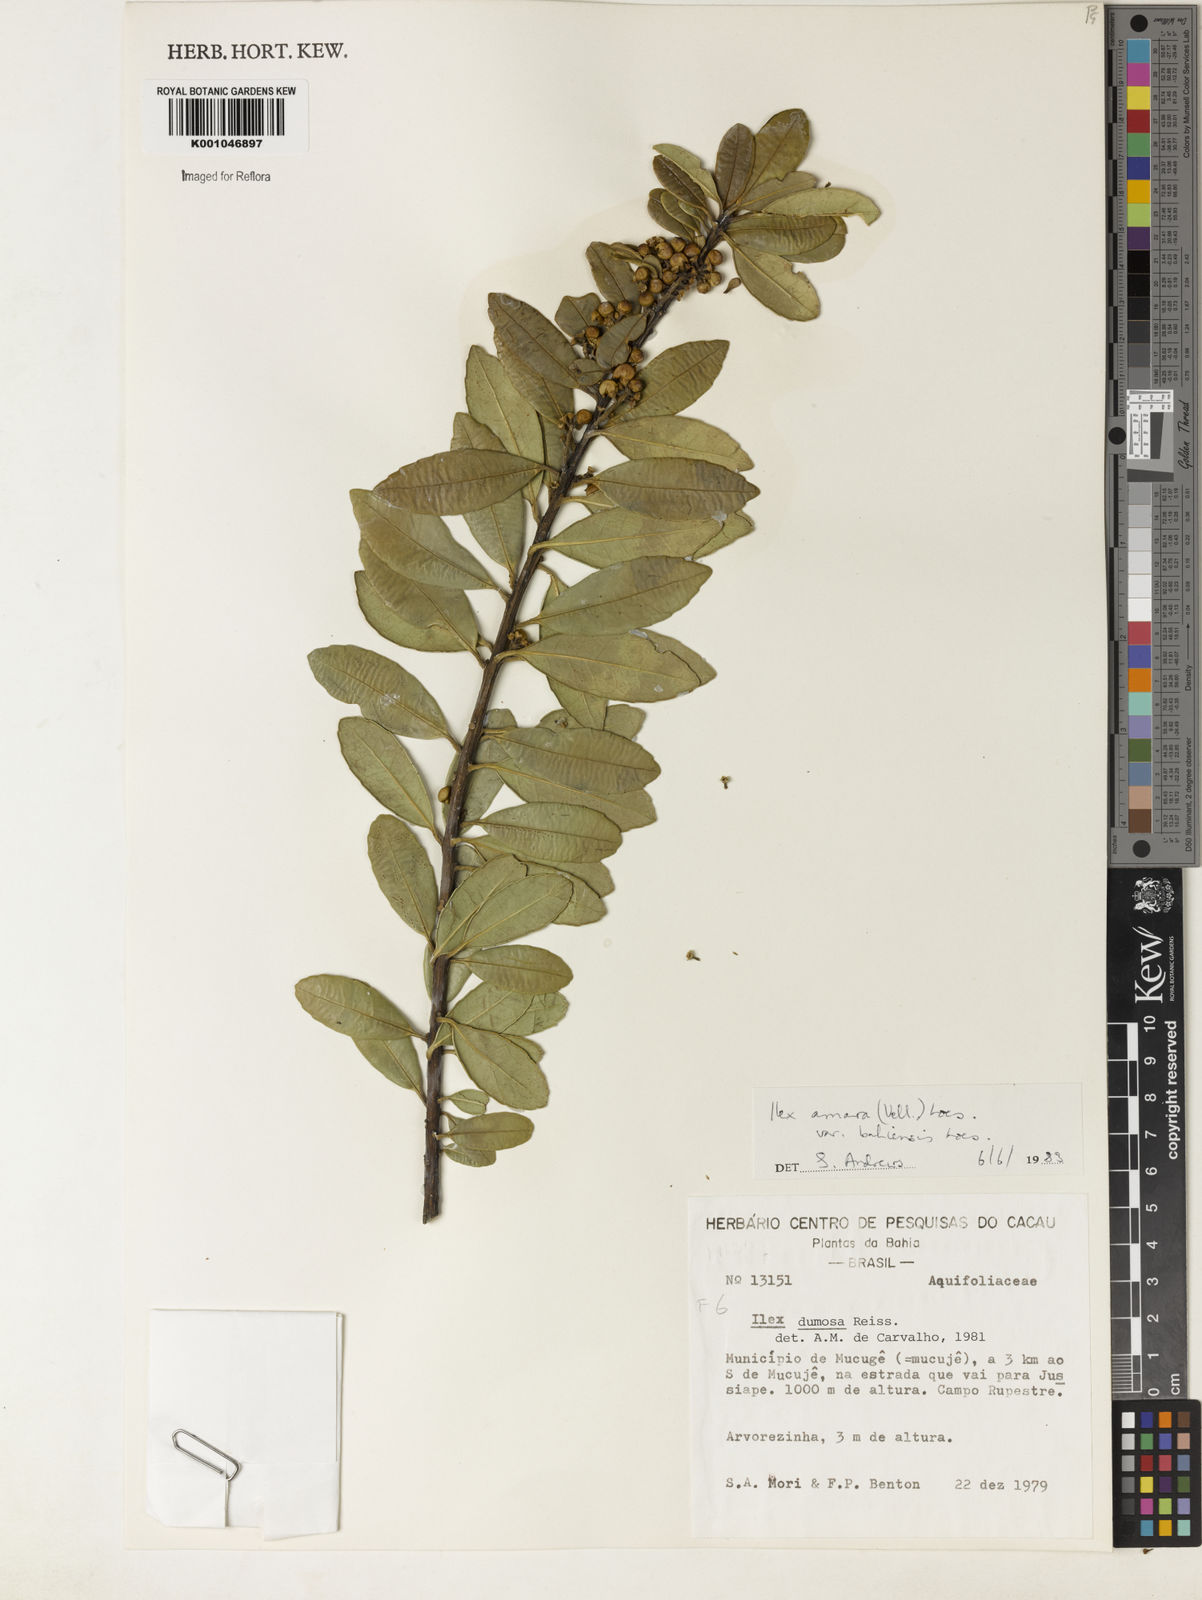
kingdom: Plantae
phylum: Tracheophyta
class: Magnoliopsida
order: Aquifoliales
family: Aquifoliaceae
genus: Ilex
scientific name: Ilex dumosa
